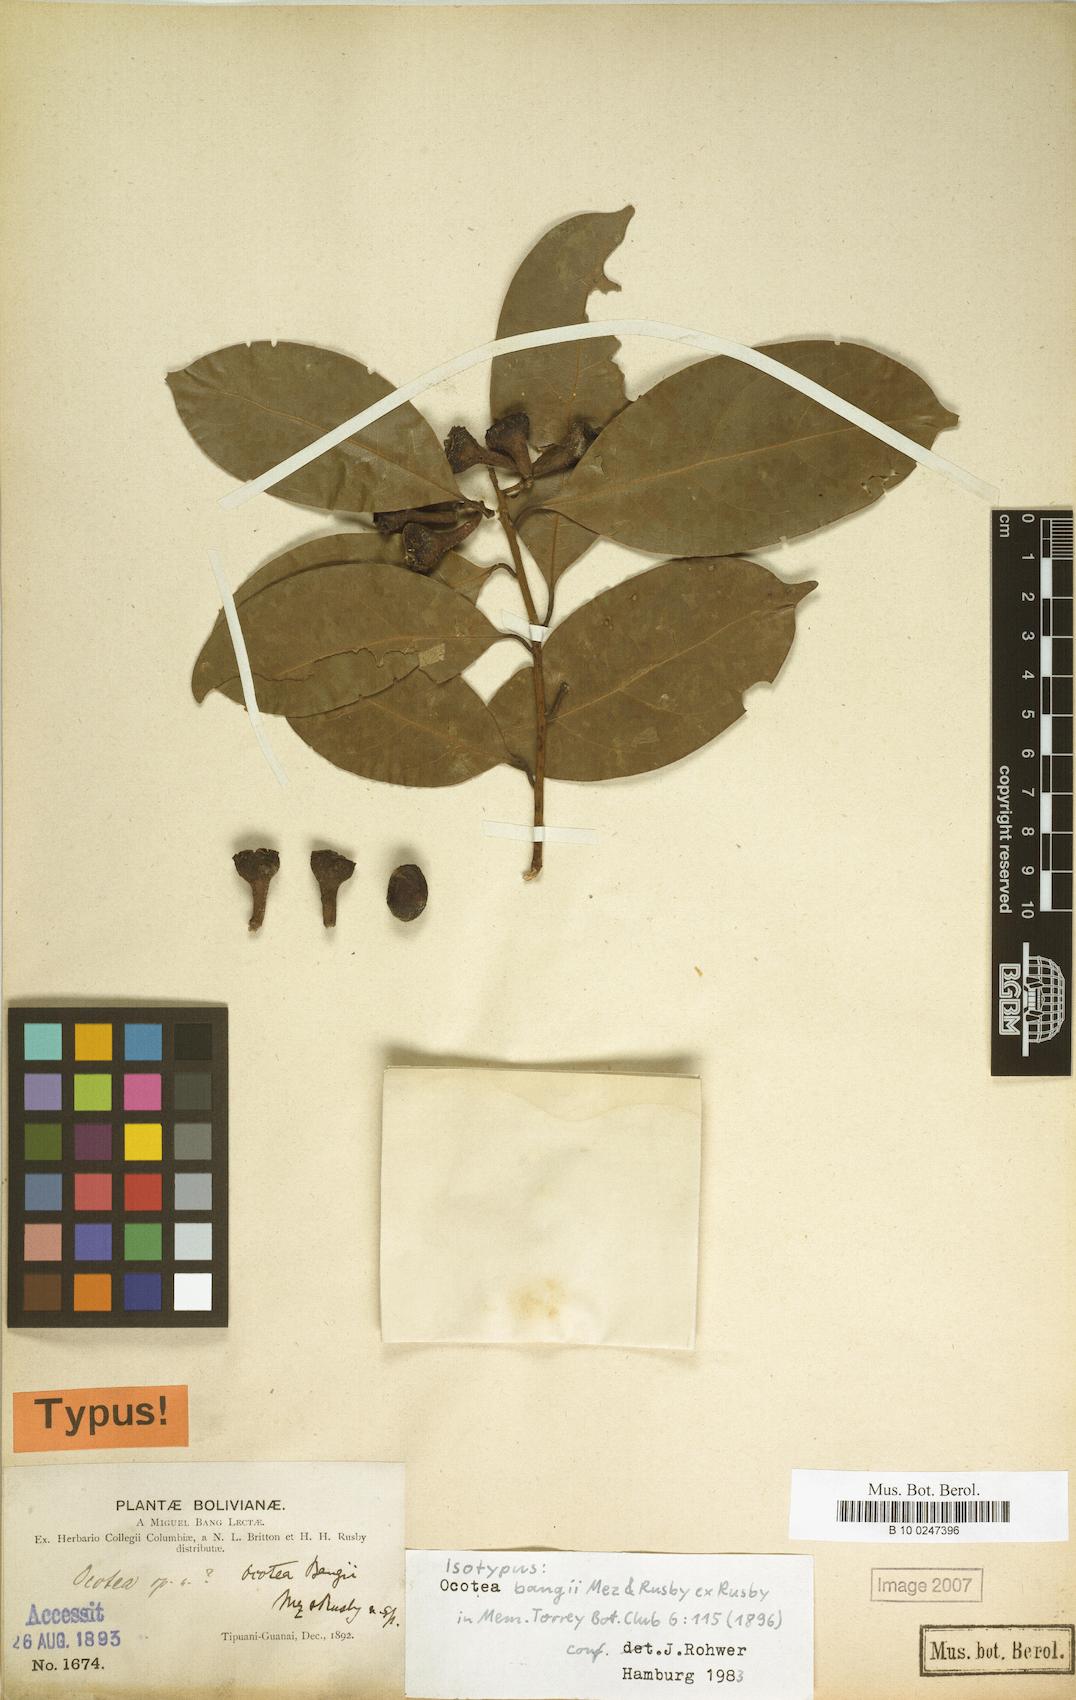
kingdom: Plantae
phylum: Tracheophyta
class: Magnoliopsida
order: Laurales
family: Lauraceae
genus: Ocotea
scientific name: Ocotea bangii
